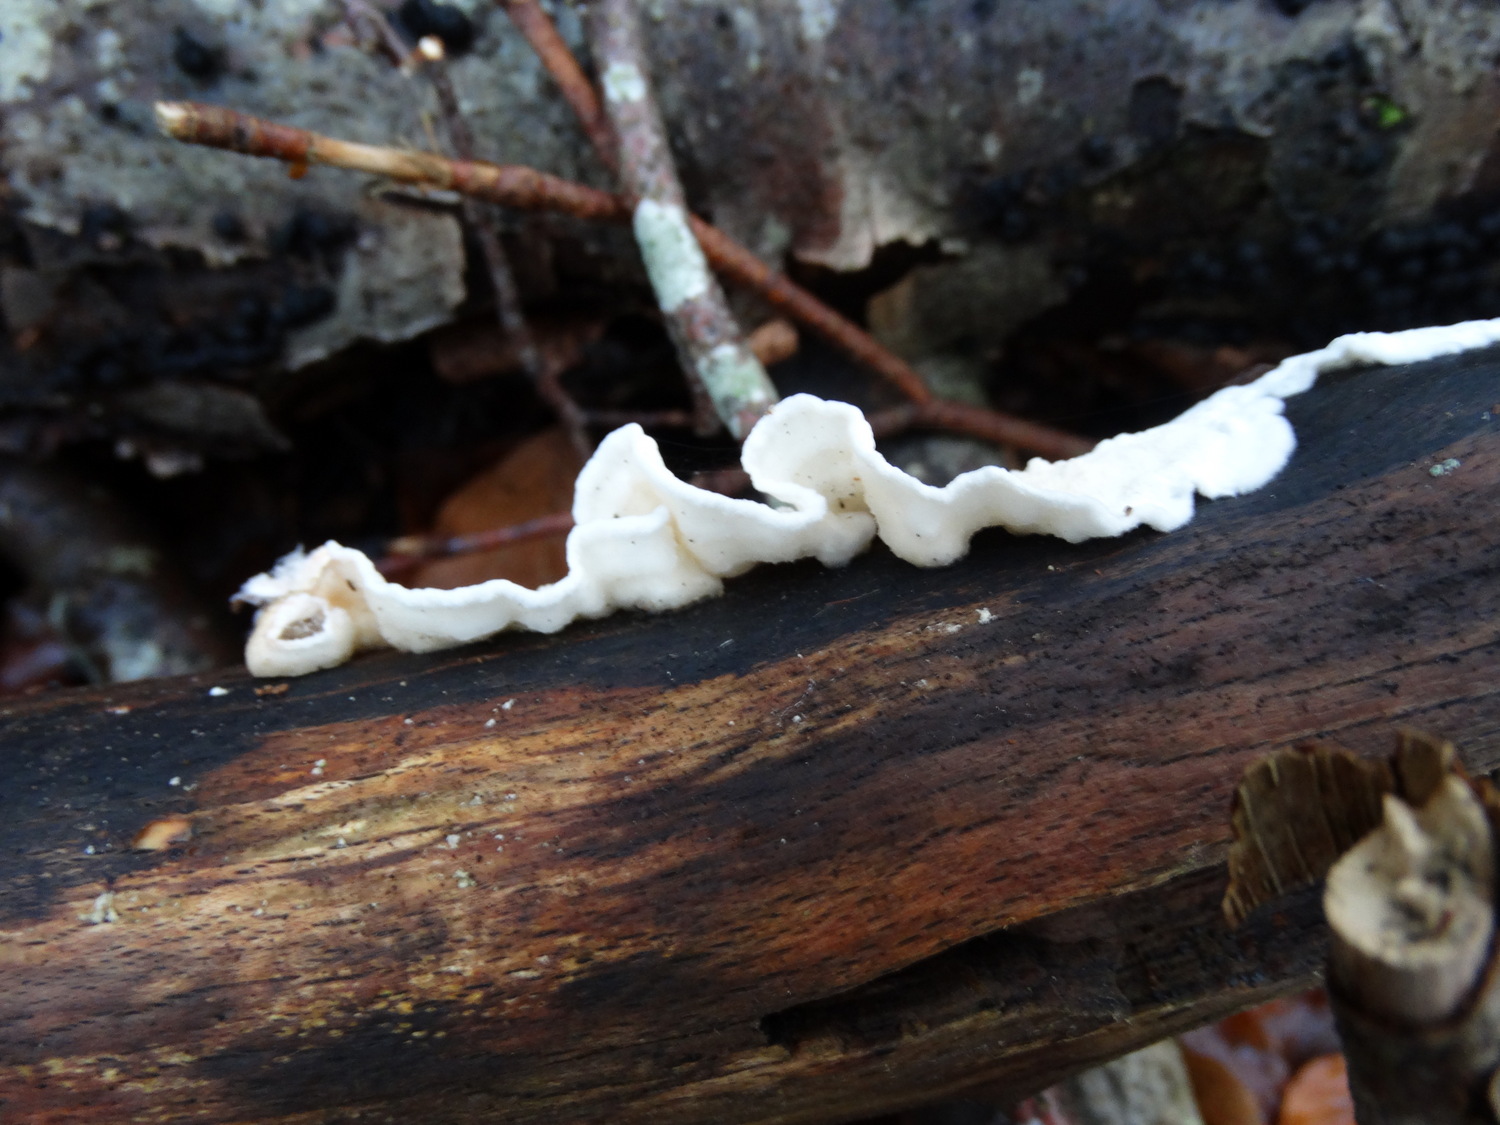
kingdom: Fungi
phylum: Basidiomycota
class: Agaricomycetes
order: Polyporales
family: Irpicaceae
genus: Byssomerulius
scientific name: Byssomerulius corium
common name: læder-åresvamp
